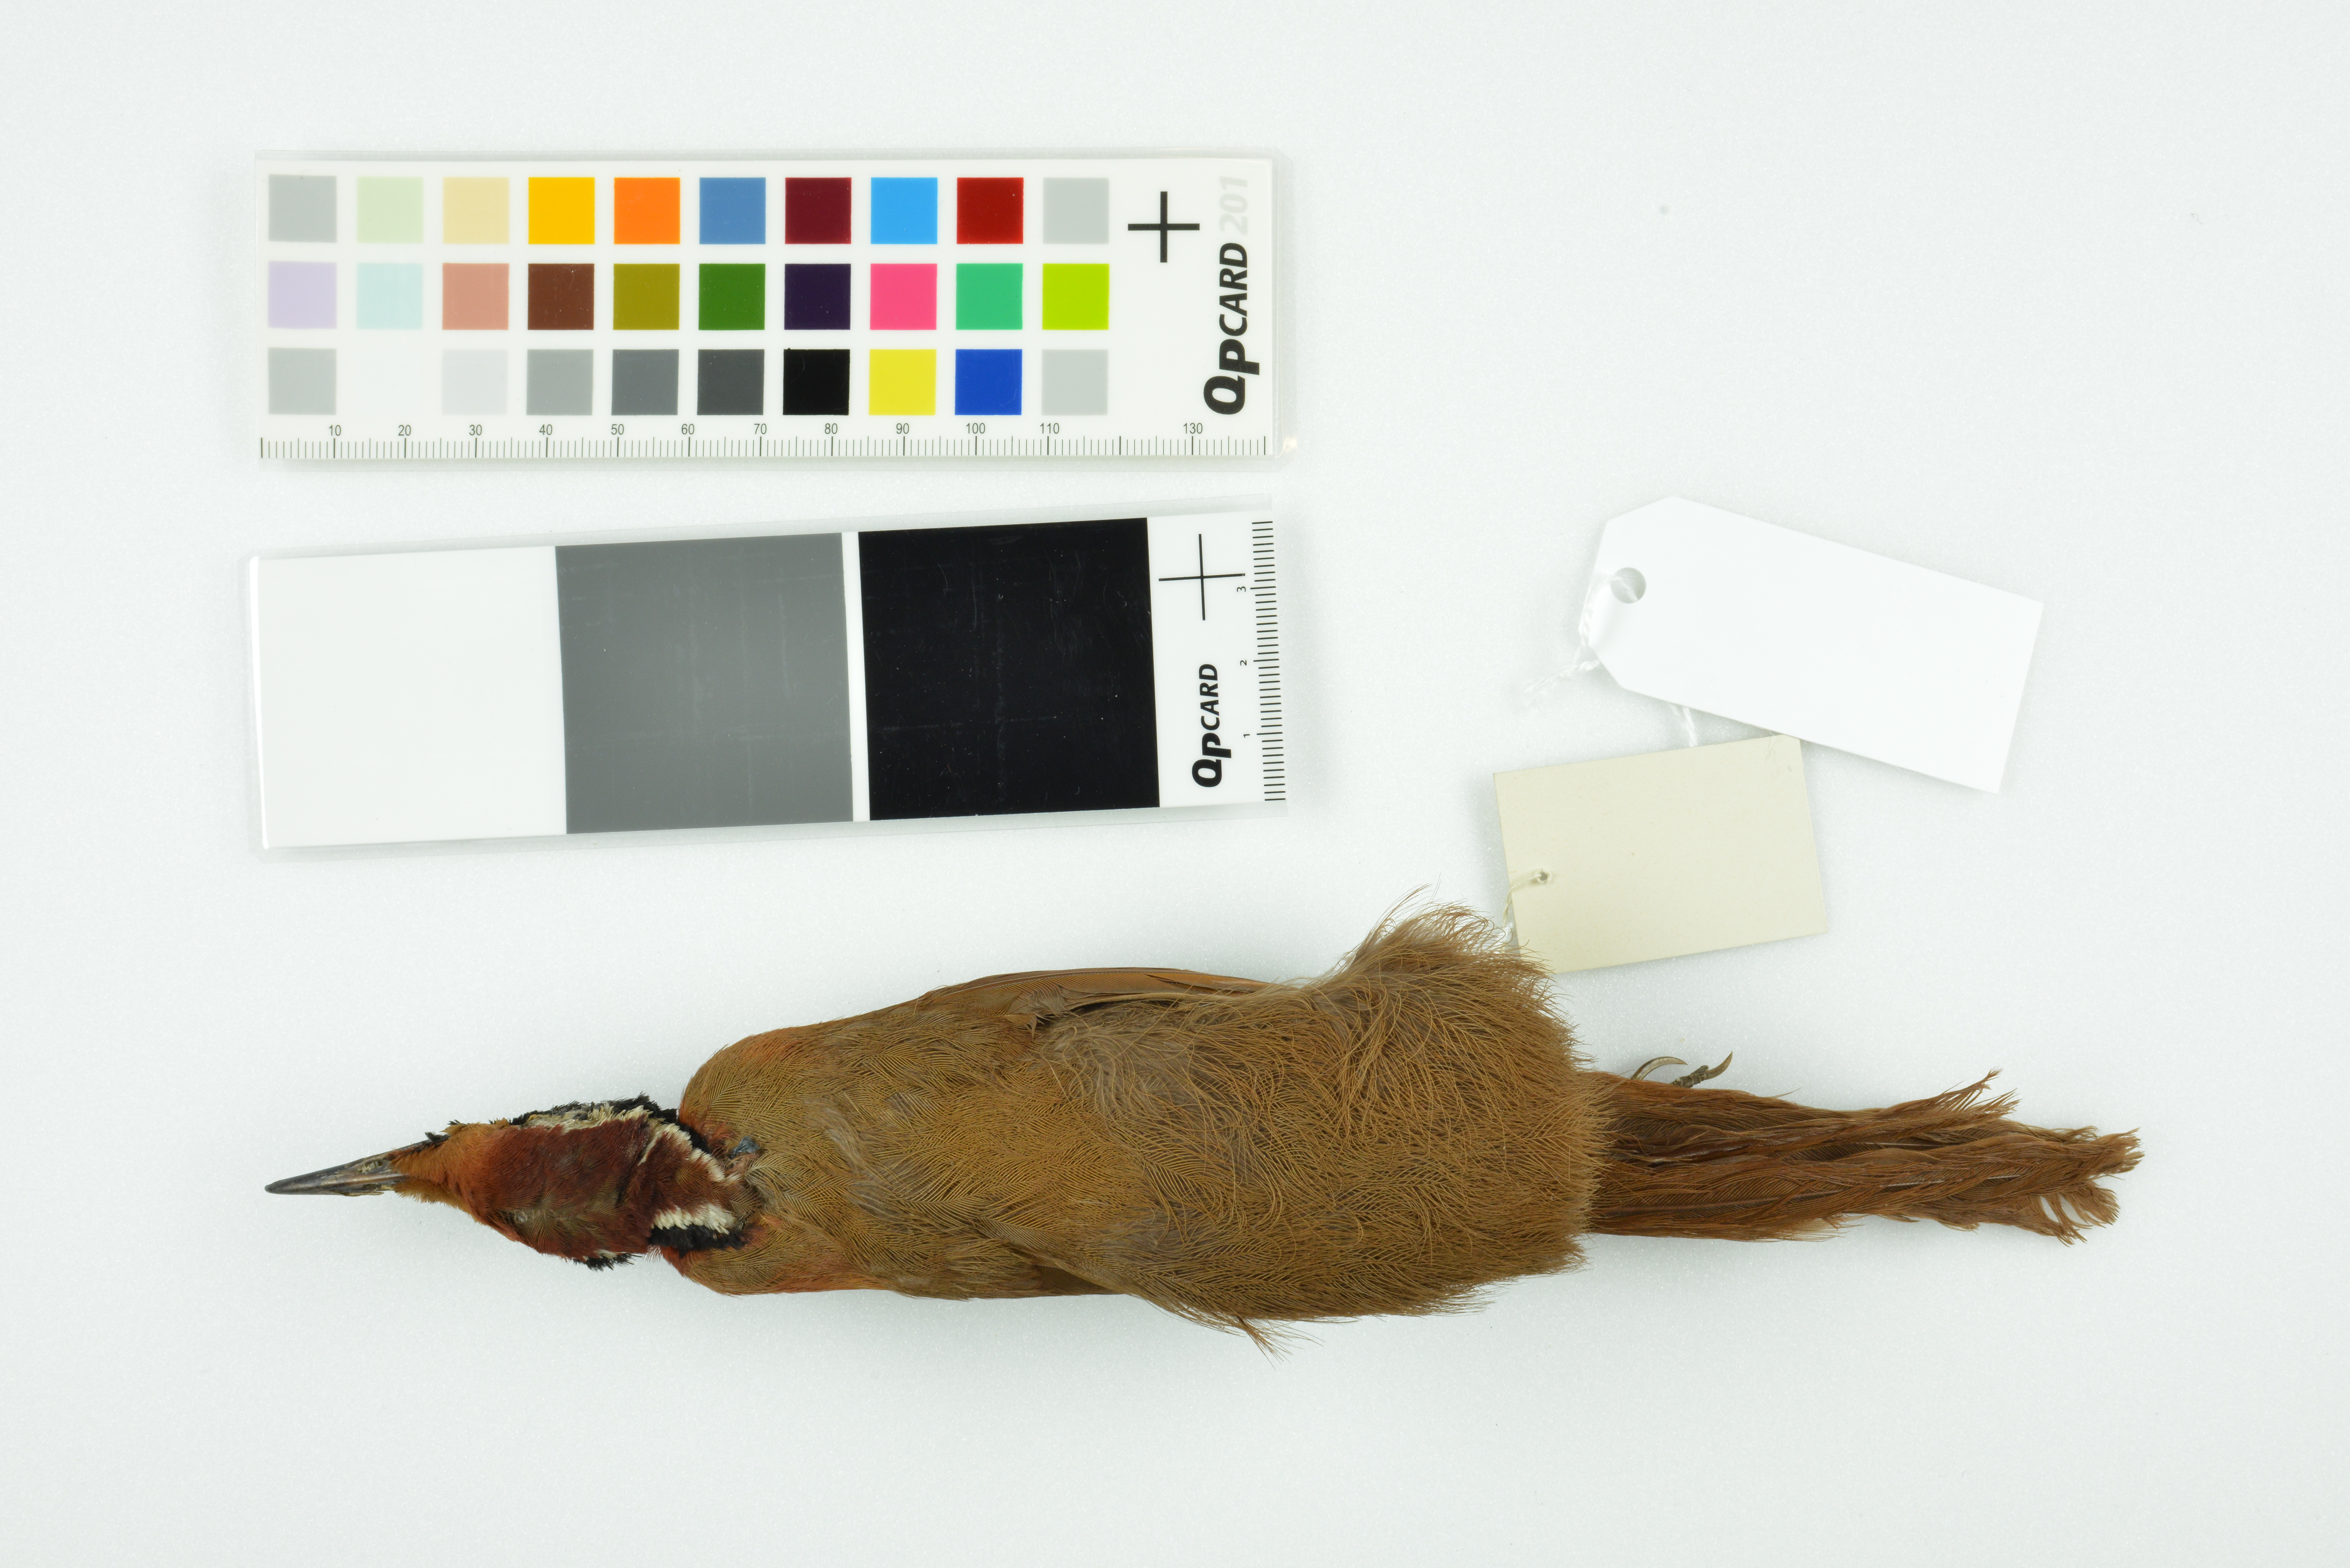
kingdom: Animalia
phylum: Chordata
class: Aves
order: Passeriformes
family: Eupetidae
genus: Eupetes
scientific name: Eupetes macrocerus
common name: Malaysian rail-babbler
